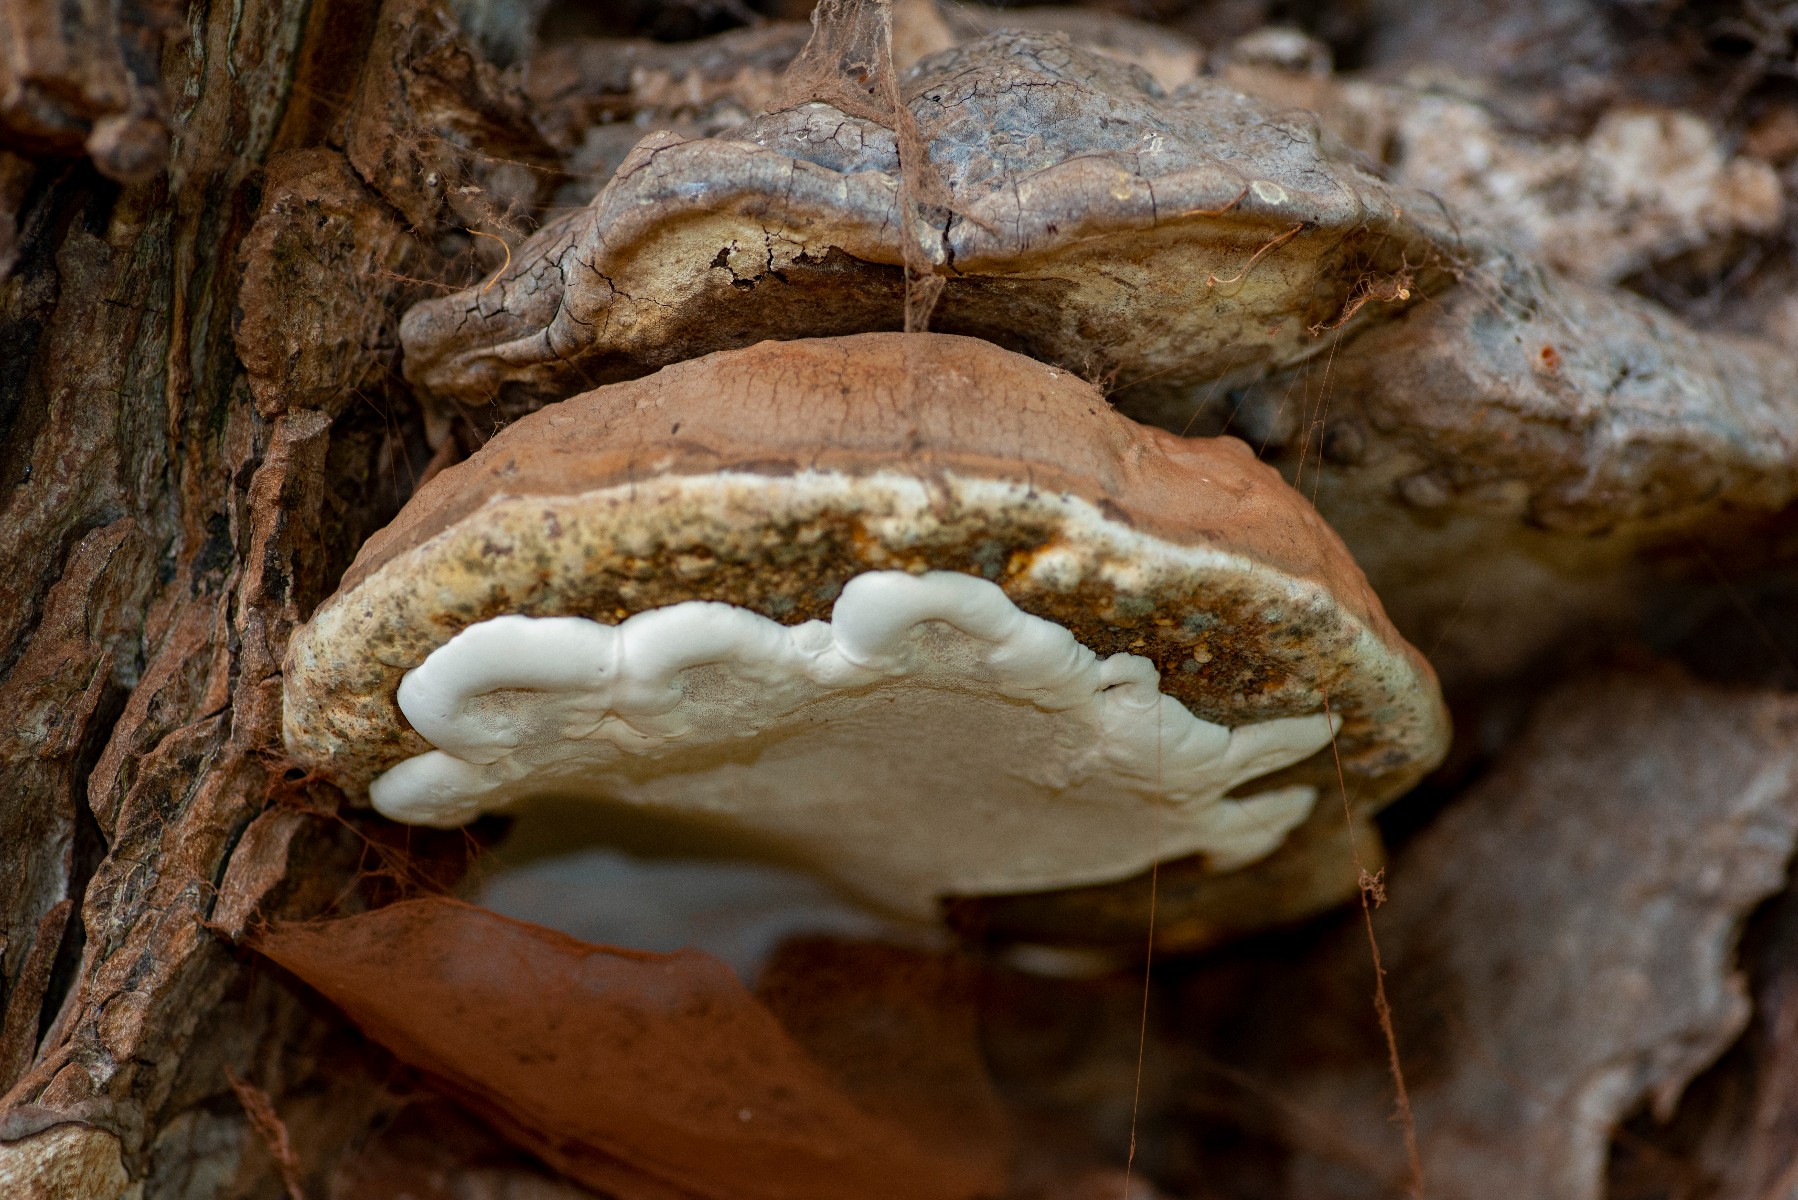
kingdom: Fungi
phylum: Basidiomycota
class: Agaricomycetes
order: Polyporales
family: Polyporaceae
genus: Ganoderma
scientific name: Ganoderma pfeifferi
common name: kobberrød lakporesvamp
